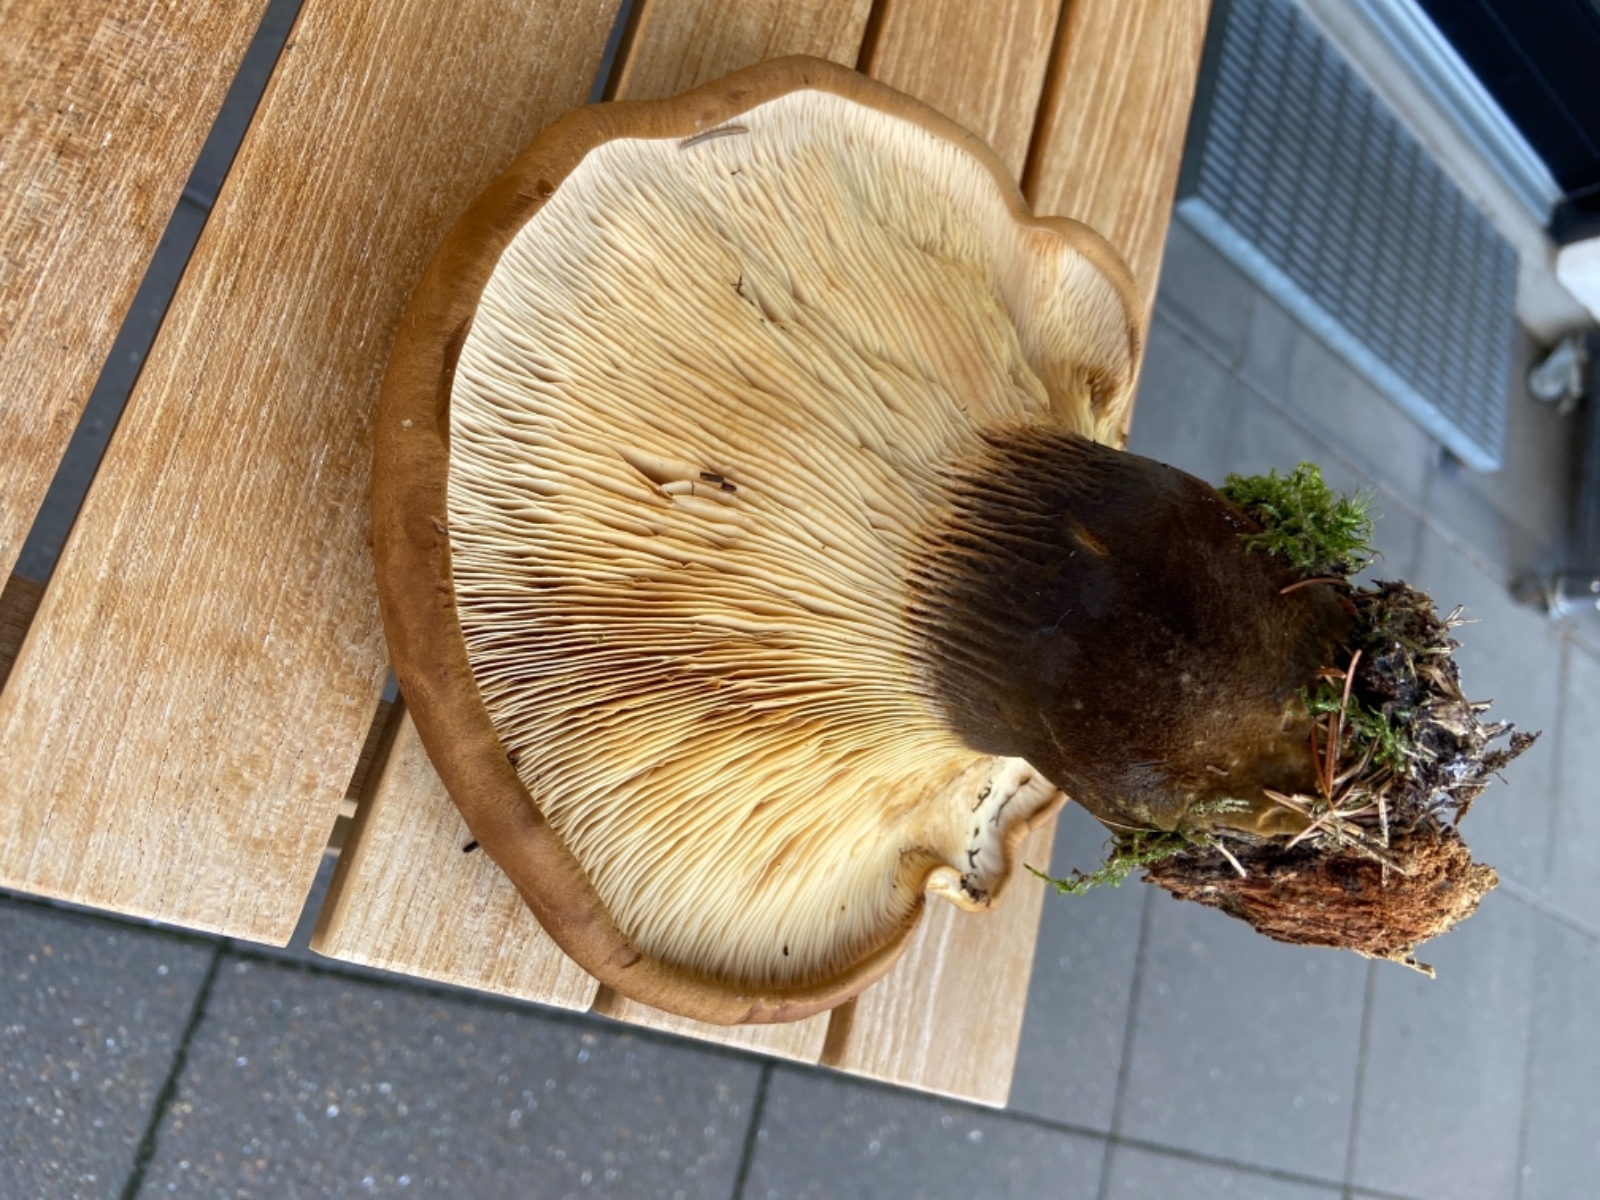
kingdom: Fungi
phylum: Basidiomycota
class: Agaricomycetes
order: Boletales
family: Tapinellaceae
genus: Tapinella
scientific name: Tapinella atrotomentosa
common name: sortfiltet viftesvamp
